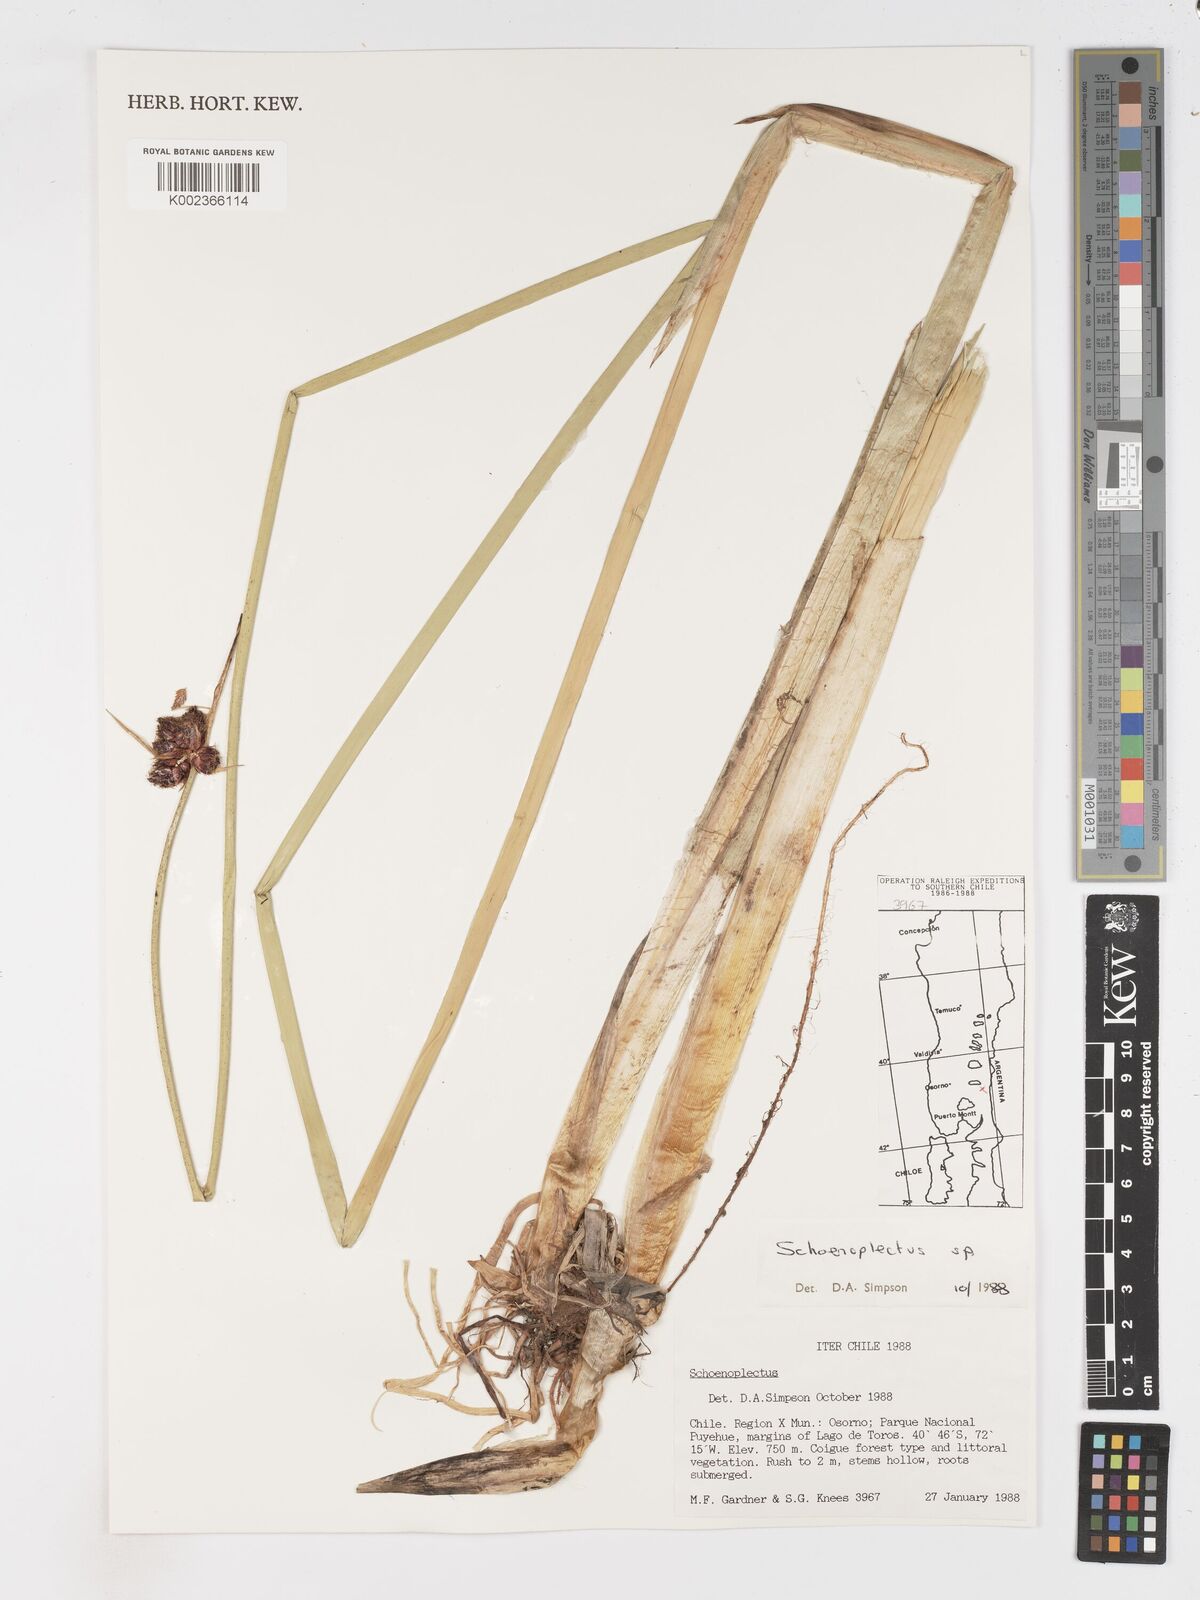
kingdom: Plantae
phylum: Tracheophyta
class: Liliopsida
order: Poales
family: Cyperaceae
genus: Schoenoplectus
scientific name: Schoenoplectus
